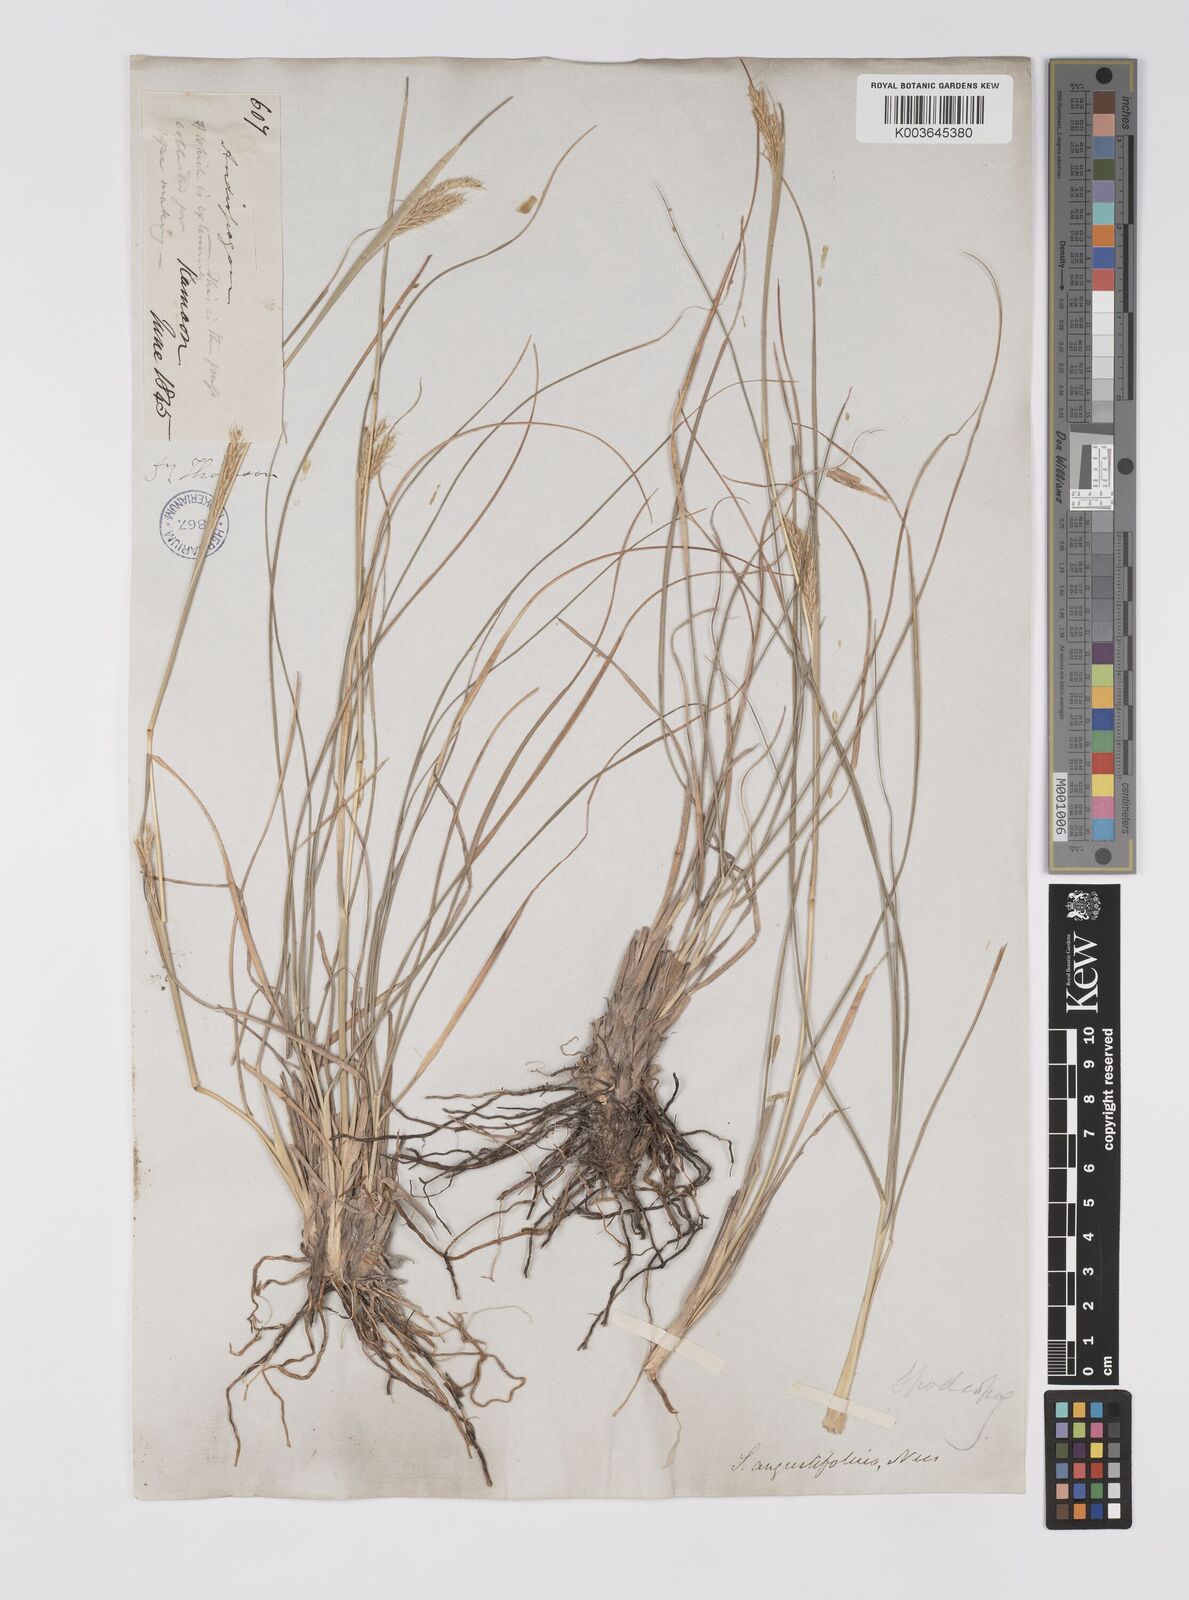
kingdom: Plantae
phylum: Tracheophyta
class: Liliopsida
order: Poales
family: Poaceae
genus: Eulaliopsis
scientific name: Eulaliopsis binata
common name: Baib grass
